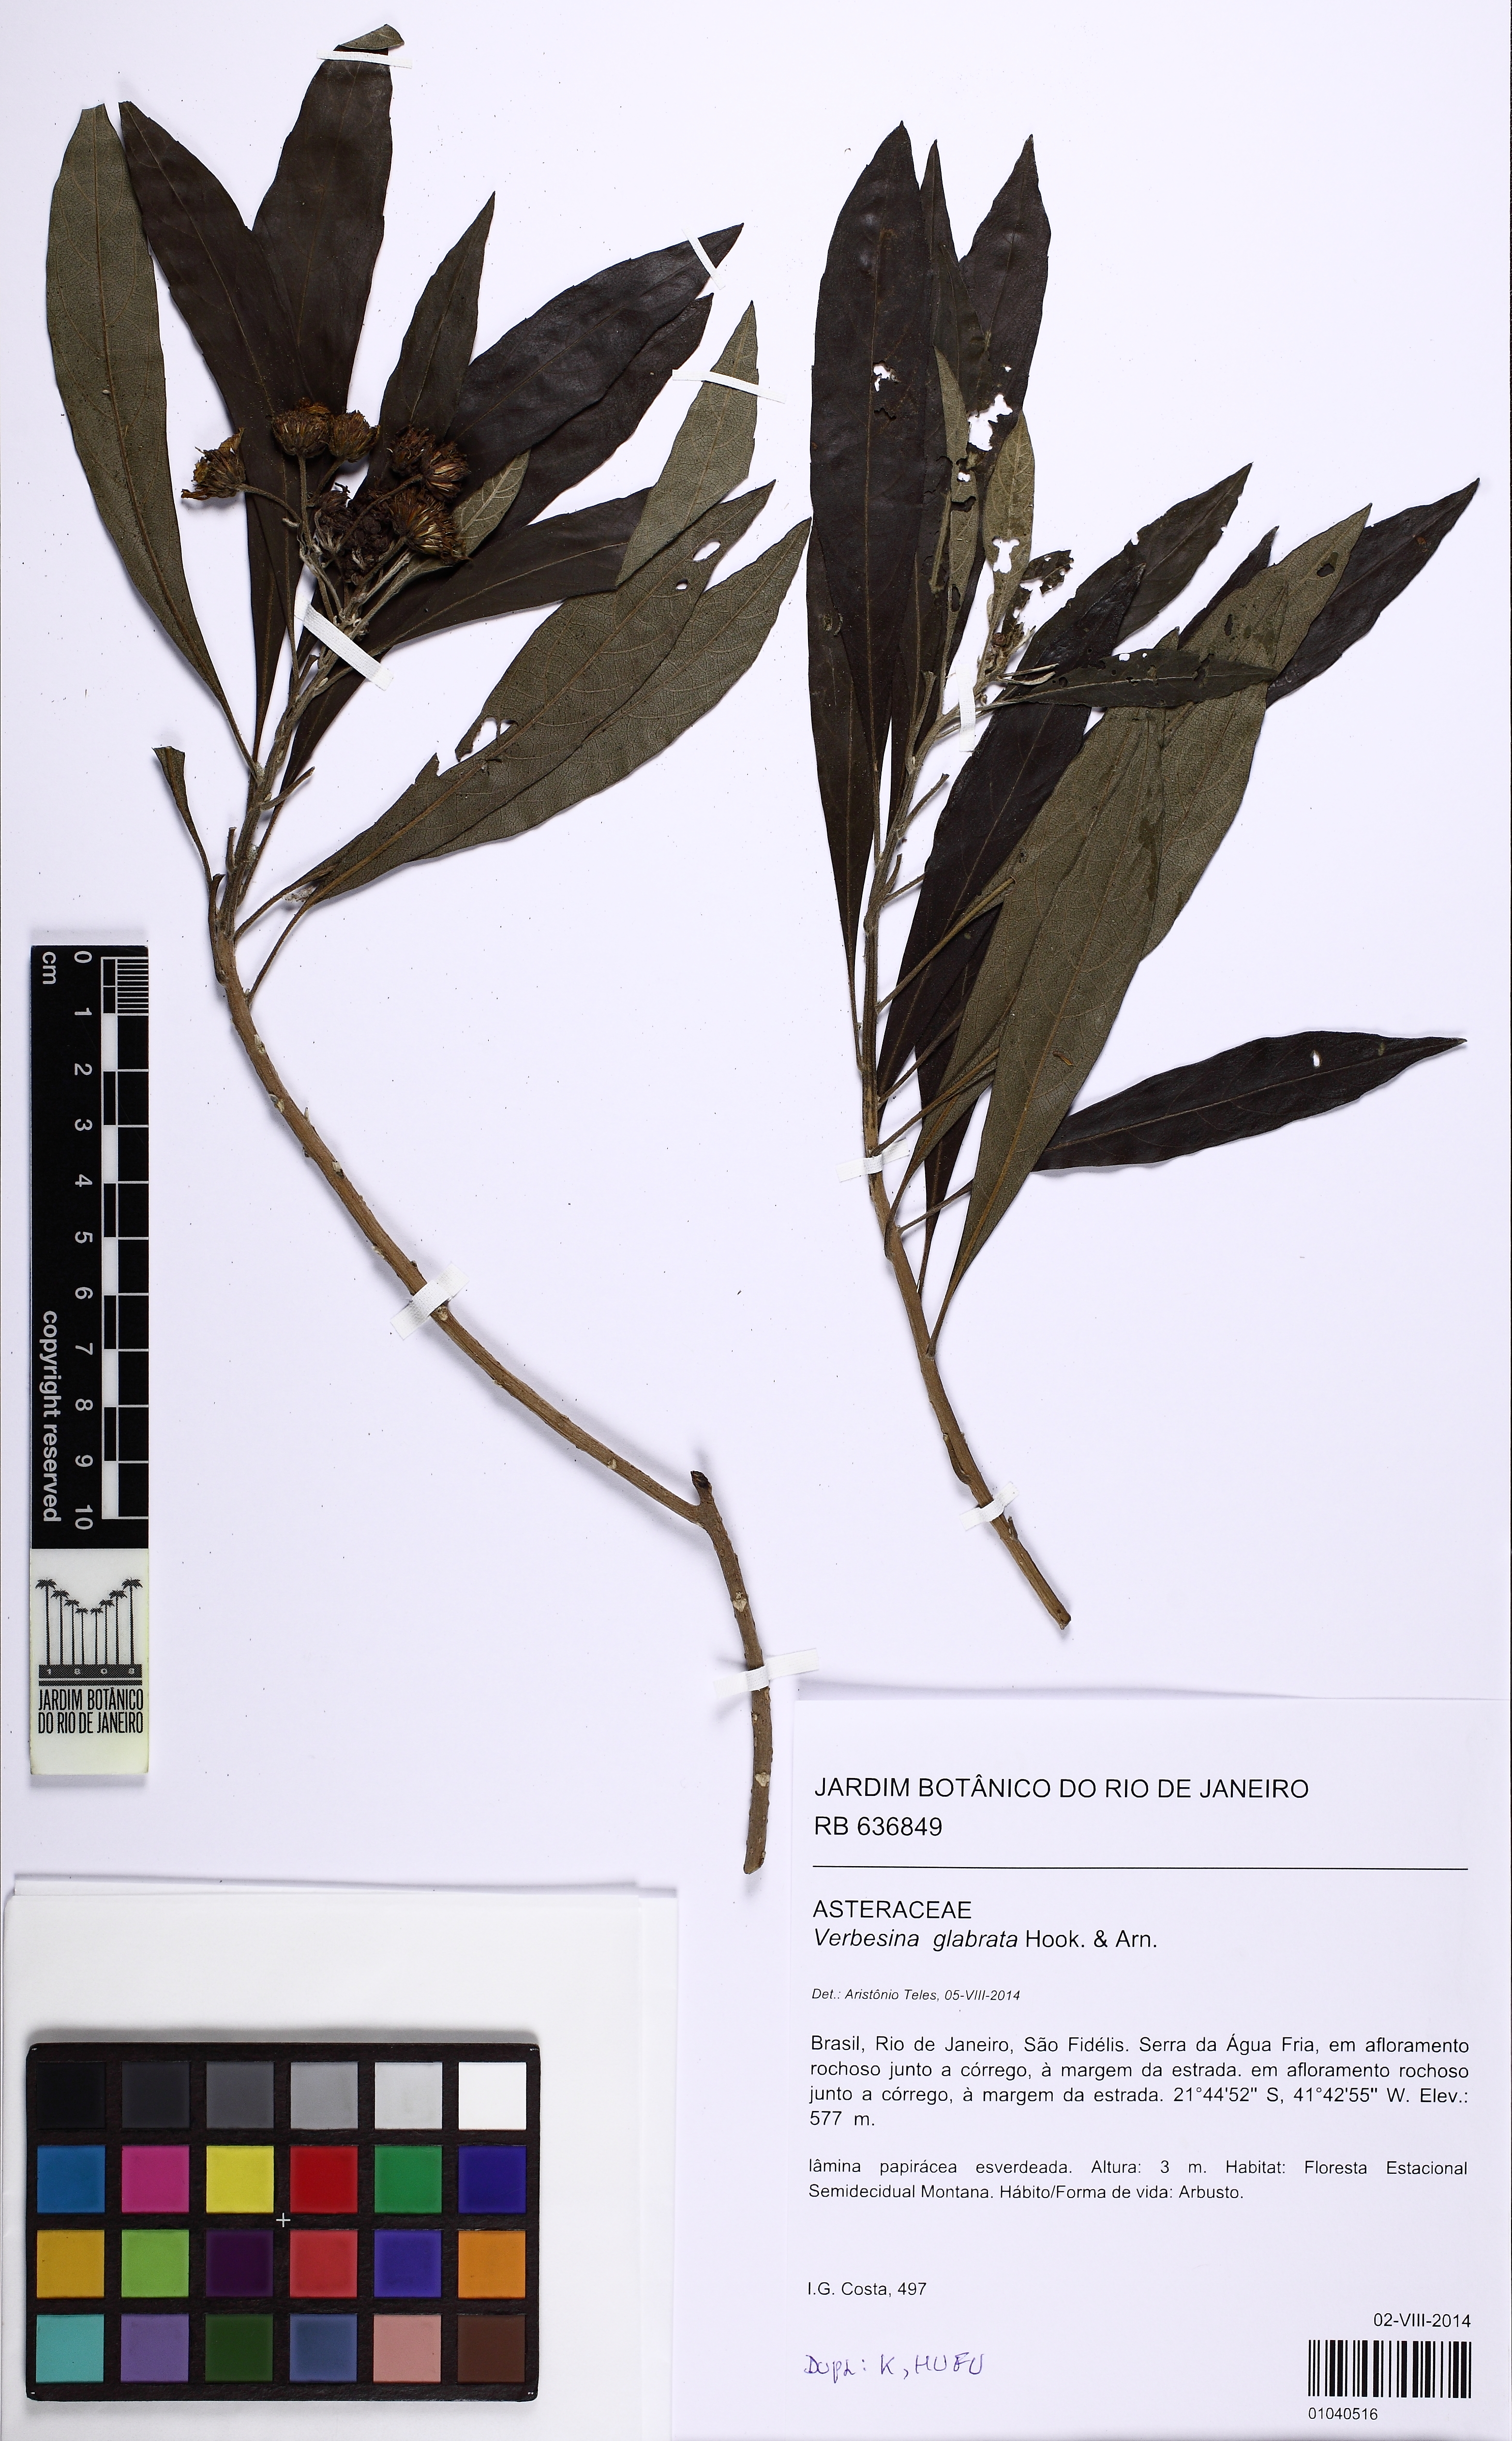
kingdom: Plantae
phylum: Tracheophyta
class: Magnoliopsida
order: Asterales
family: Asteraceae
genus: Verbesina
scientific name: Verbesina glabrata
